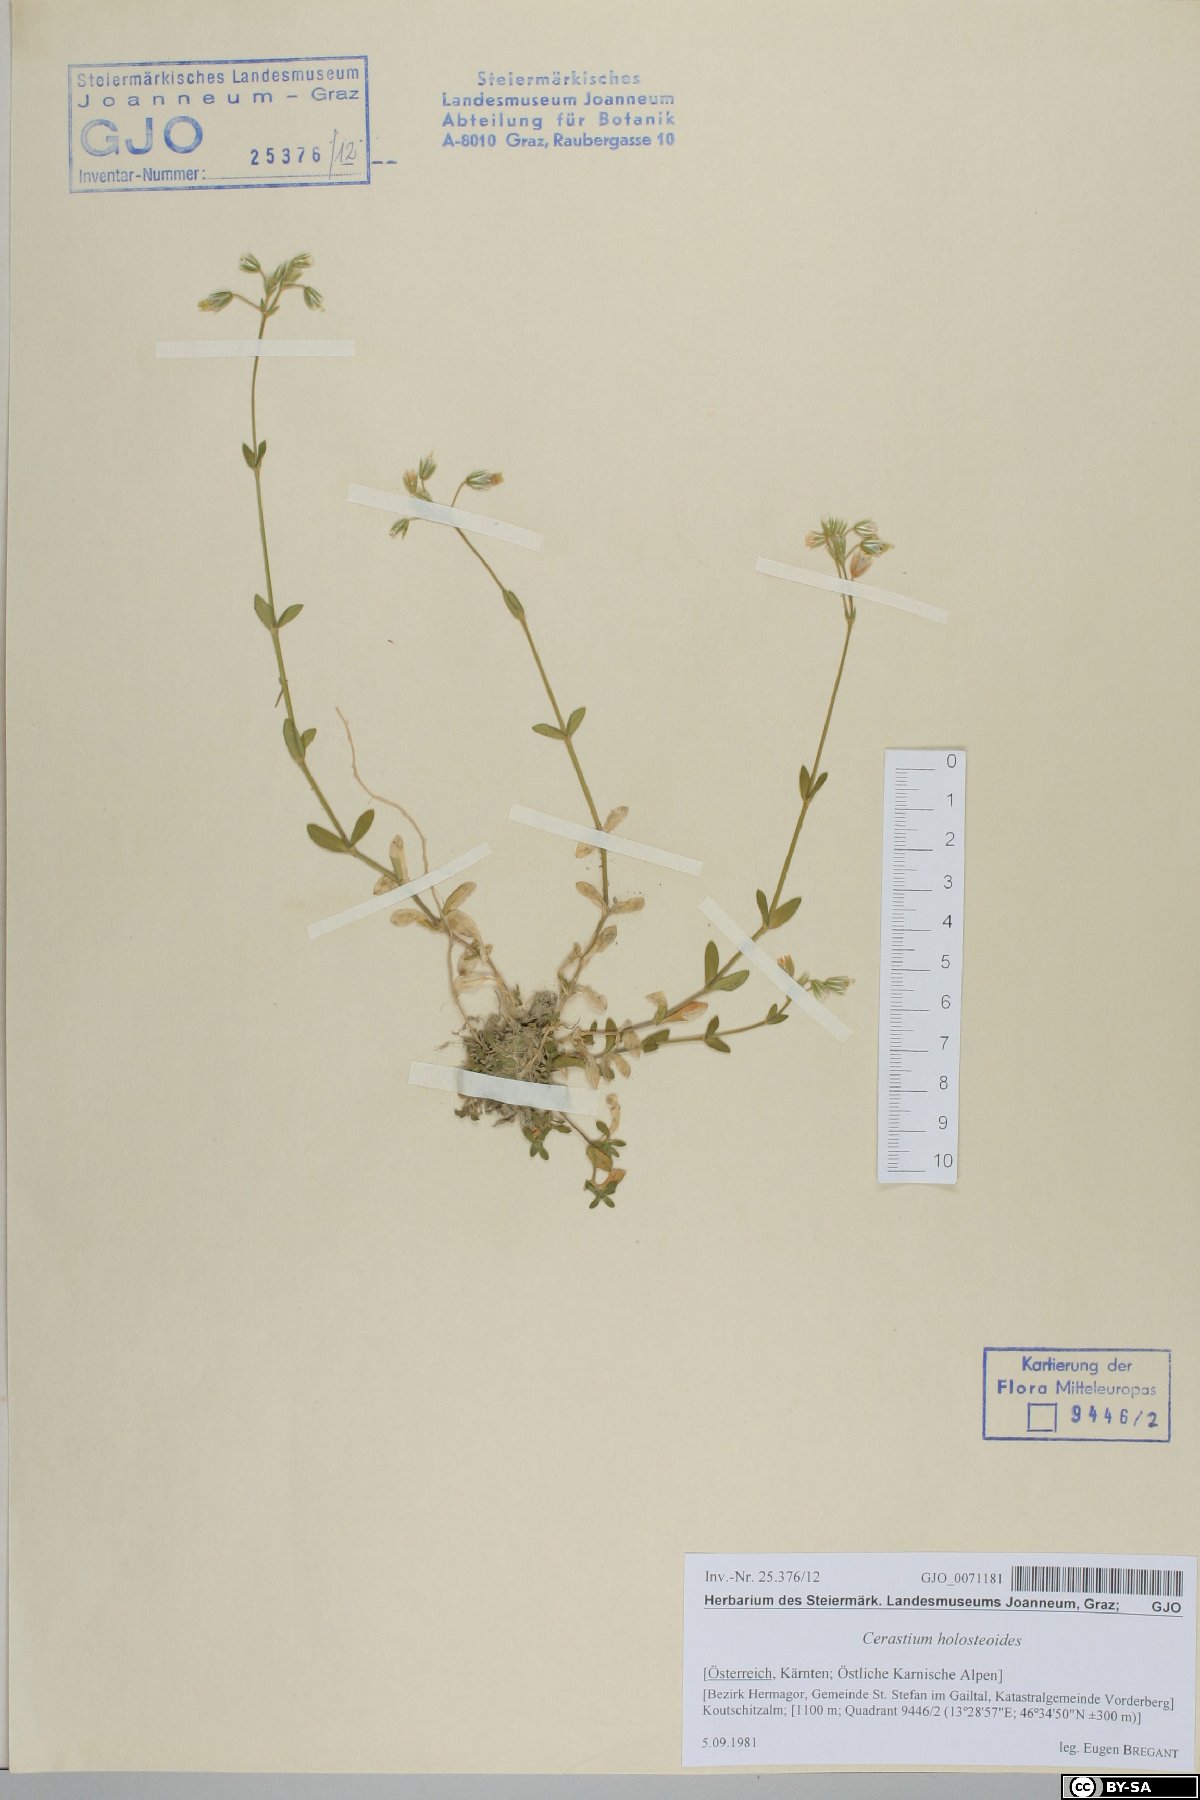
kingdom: Plantae
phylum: Tracheophyta
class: Magnoliopsida
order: Caryophyllales
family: Caryophyllaceae
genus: Cerastium
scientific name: Cerastium holosteoides
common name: Big chickweed
